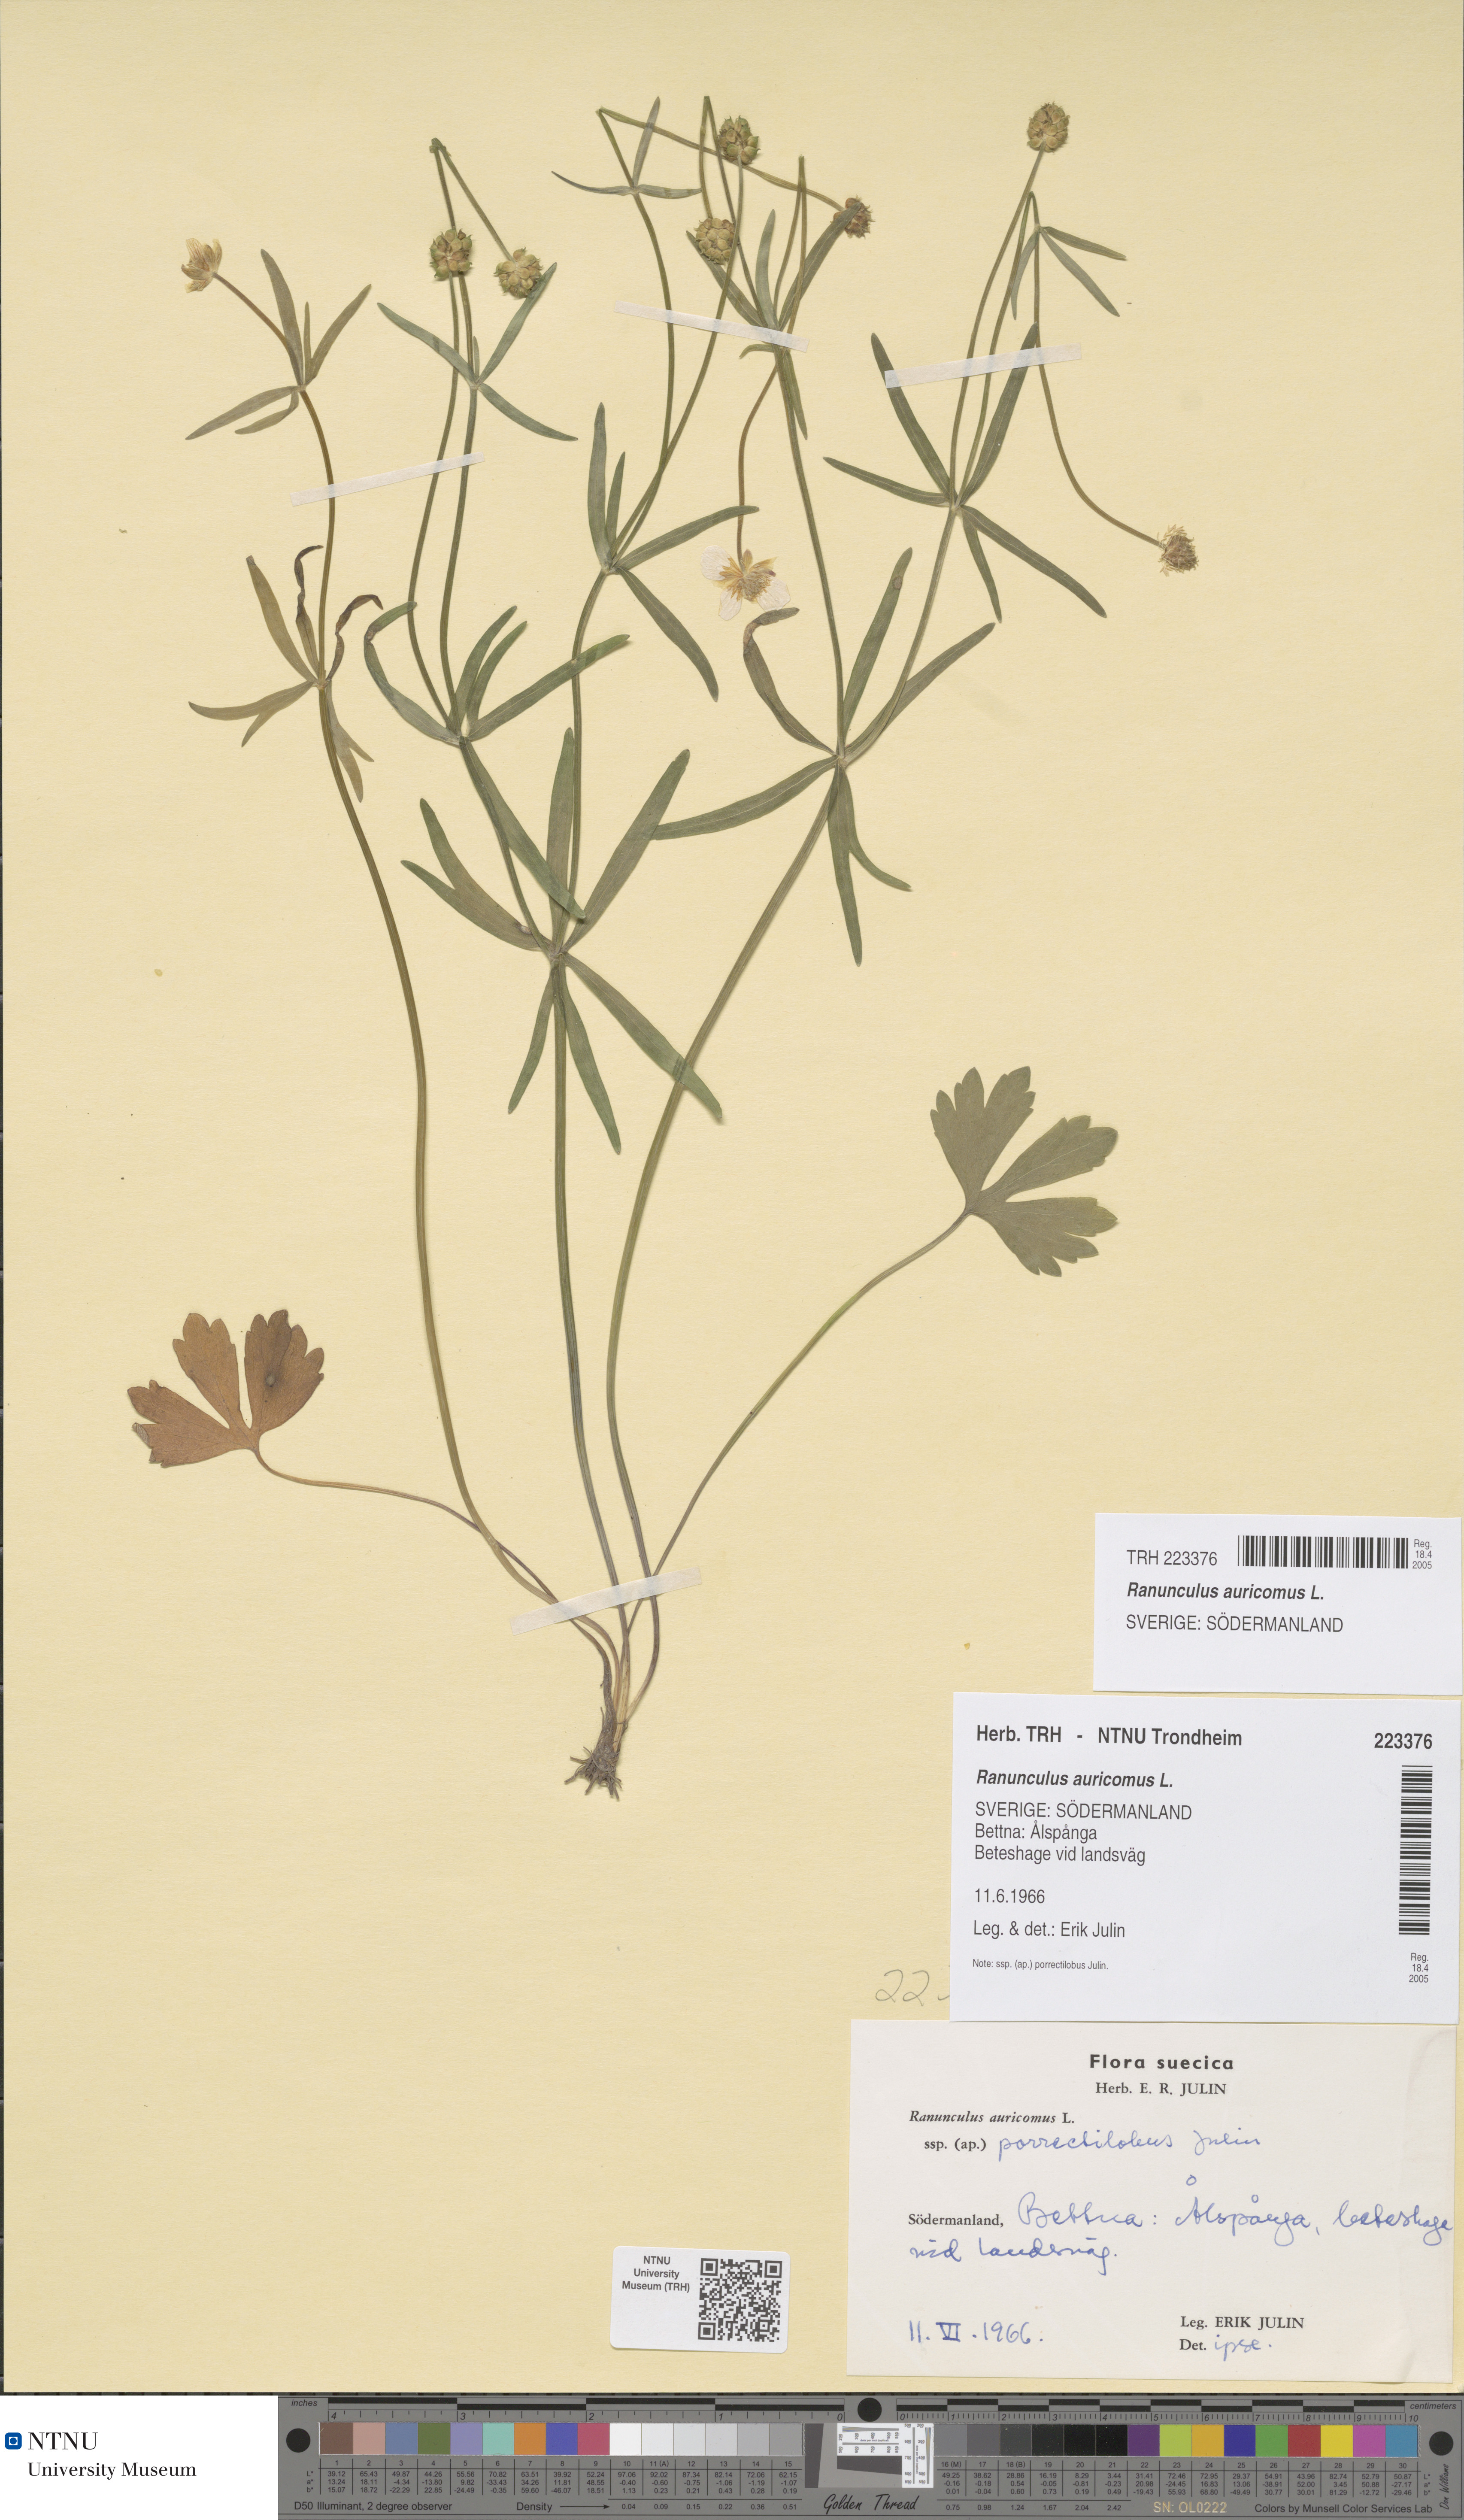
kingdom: Plantae
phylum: Tracheophyta
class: Magnoliopsida
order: Ranunculales
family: Ranunculaceae
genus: Ranunculus
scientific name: Ranunculus auricomus
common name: Goldilocks buttercup
